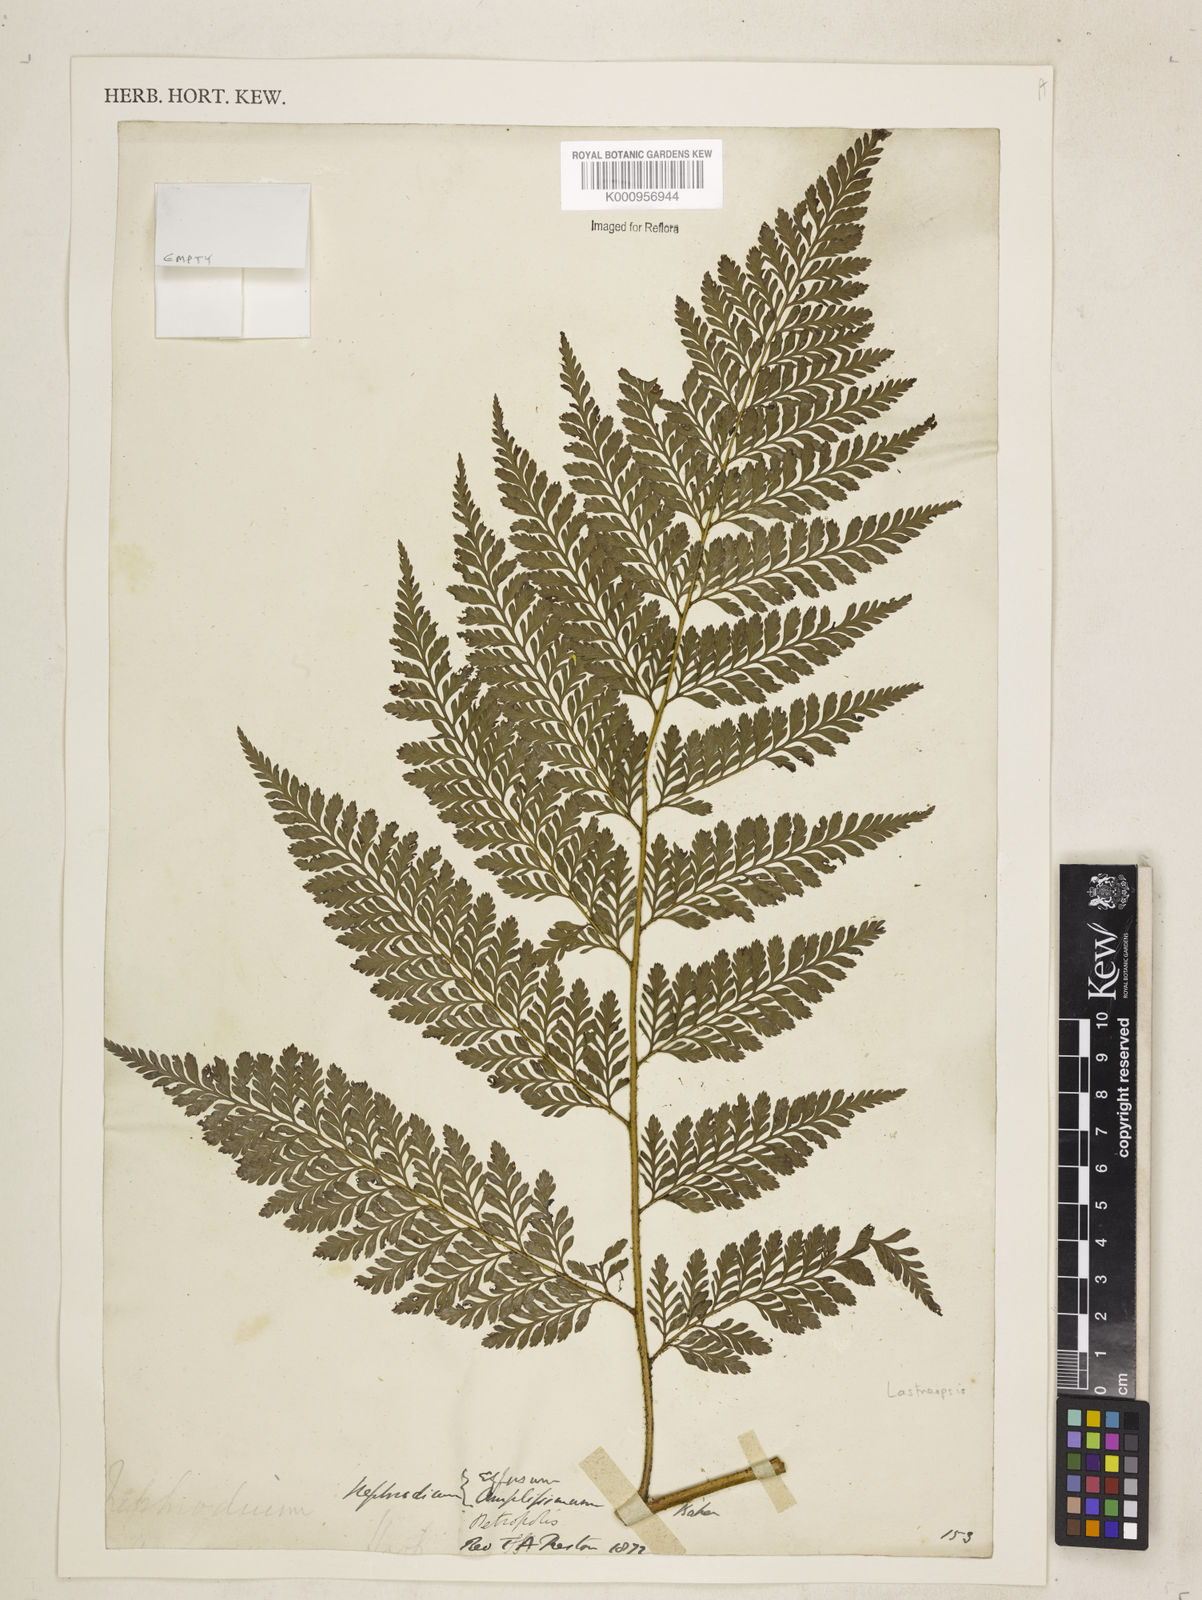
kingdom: Plantae
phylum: Tracheophyta
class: Polypodiopsida
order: Polypodiales
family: Dryopteridaceae
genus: Lastreopsis
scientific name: Lastreopsis amplissima
